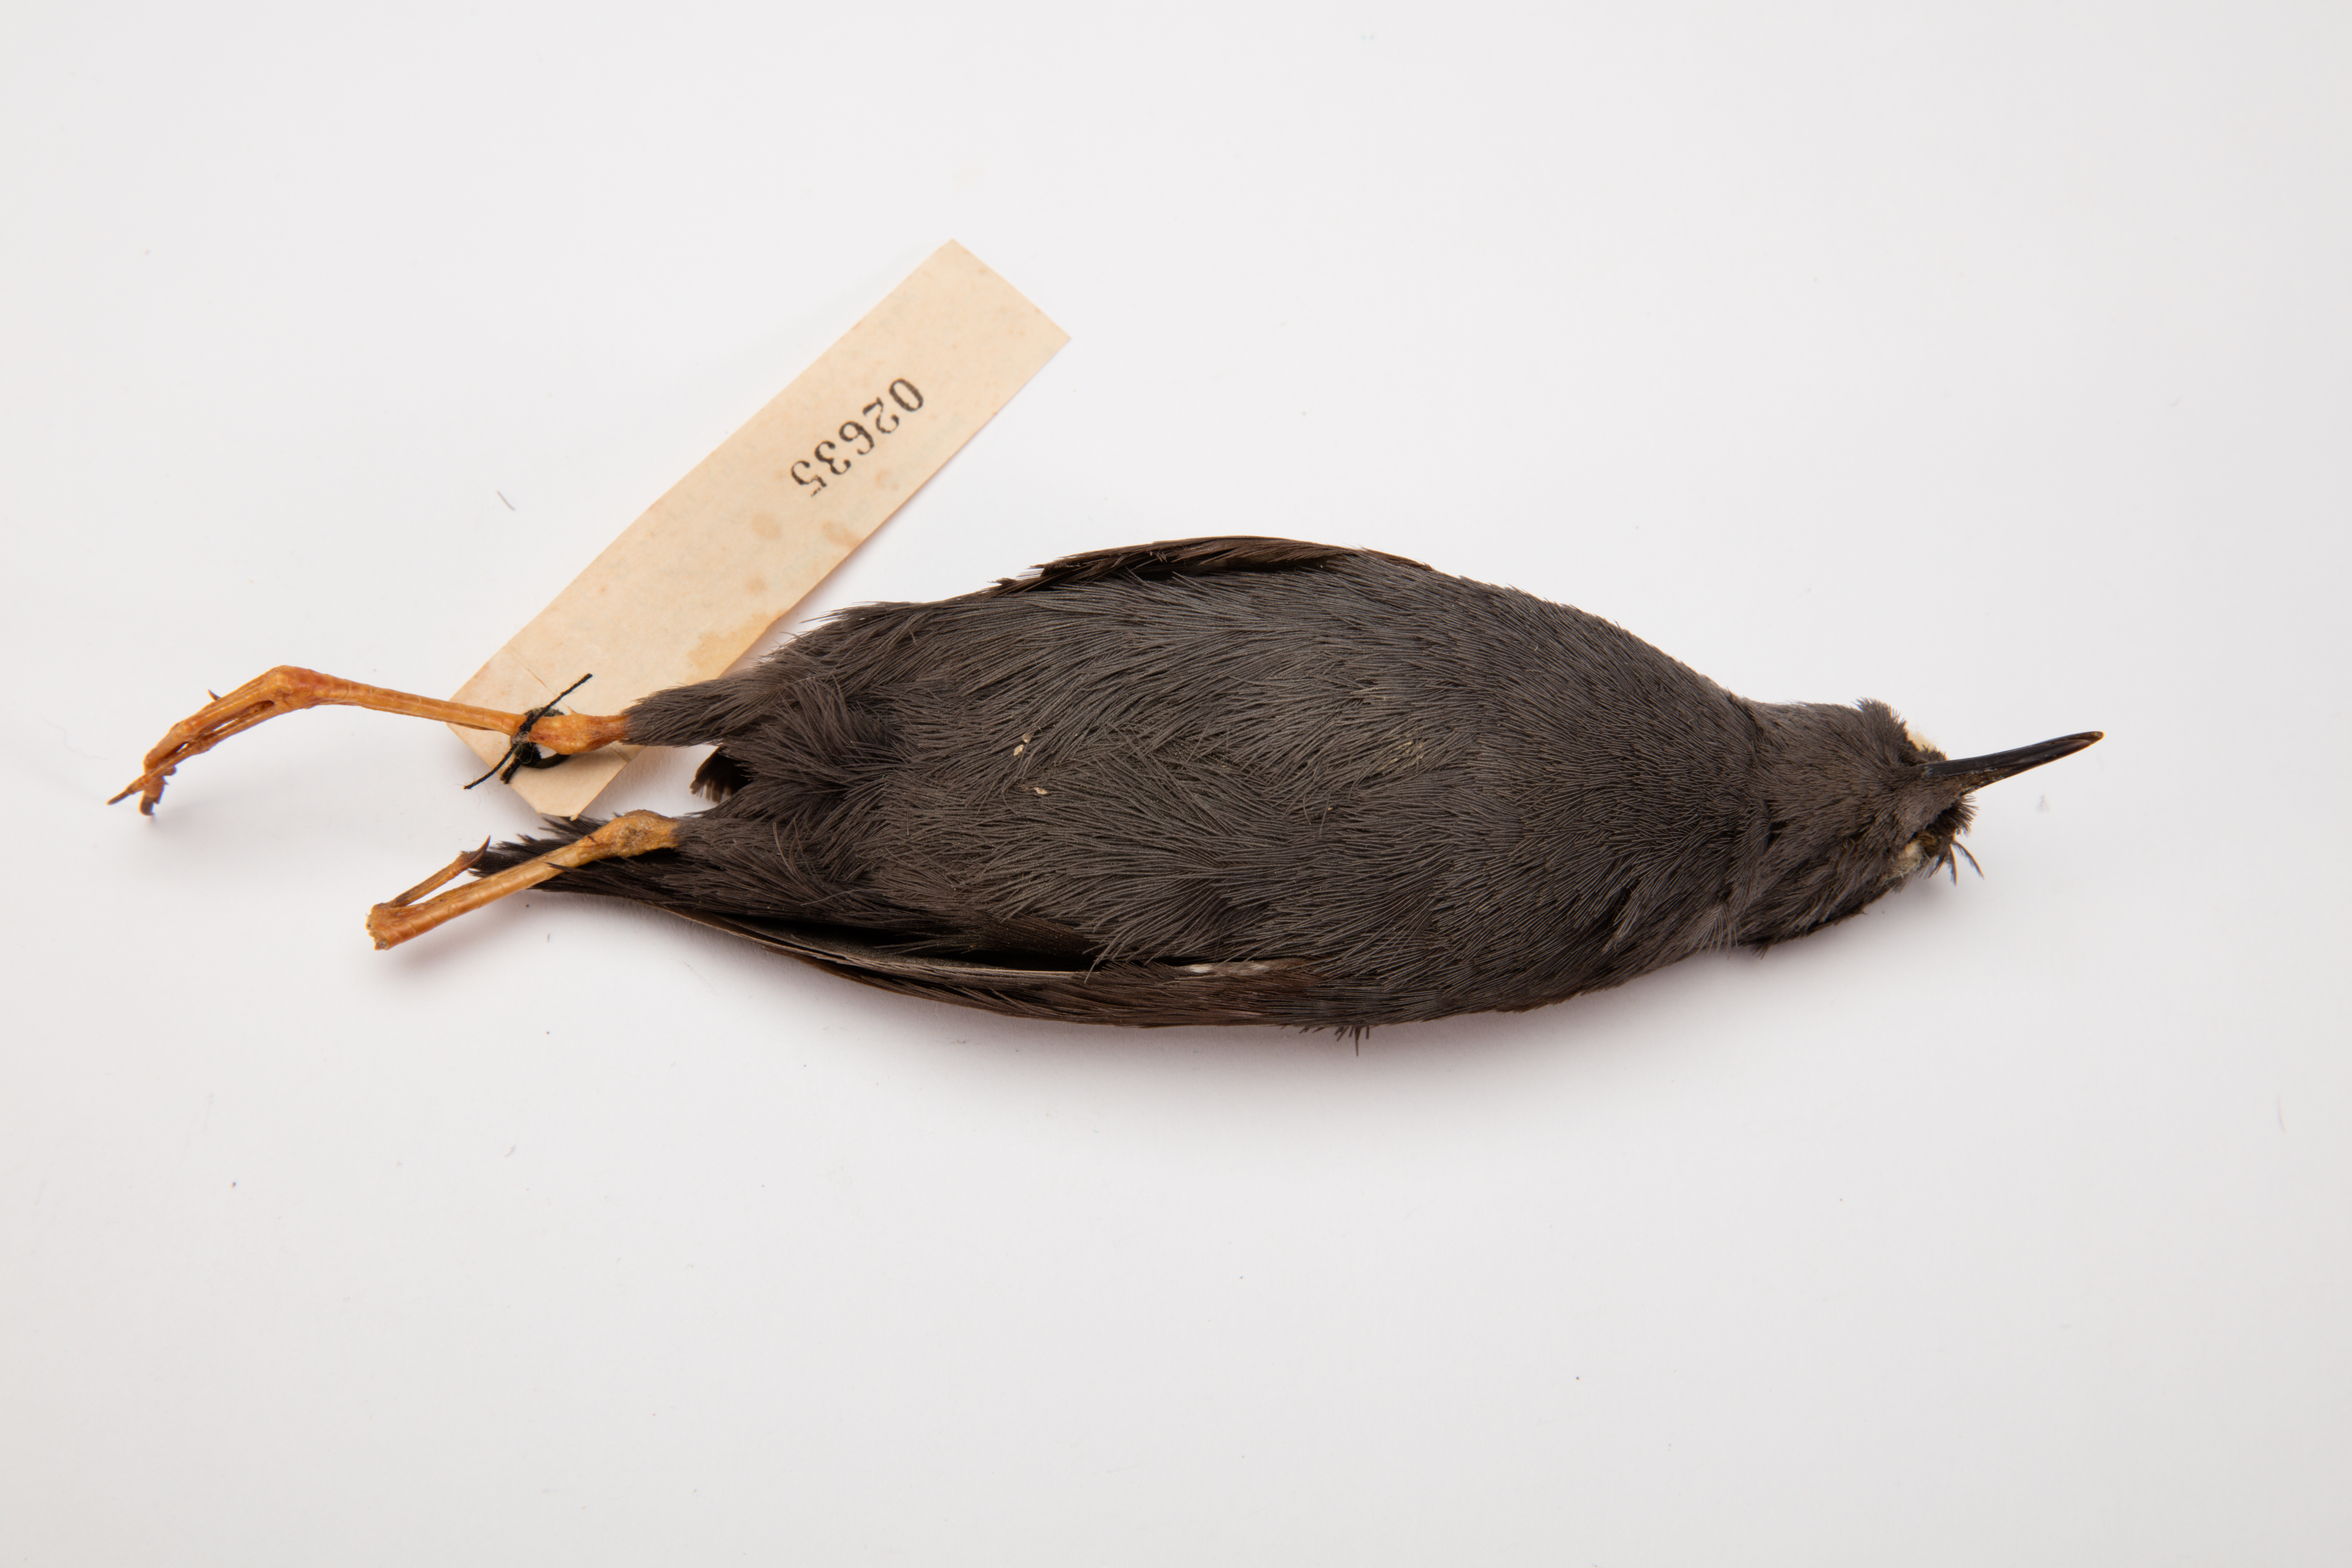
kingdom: Animalia
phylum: Chordata
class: Aves
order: Gruiformes
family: Rallidae
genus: Porzana
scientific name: Porzana tabuensis
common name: Spotless crake
